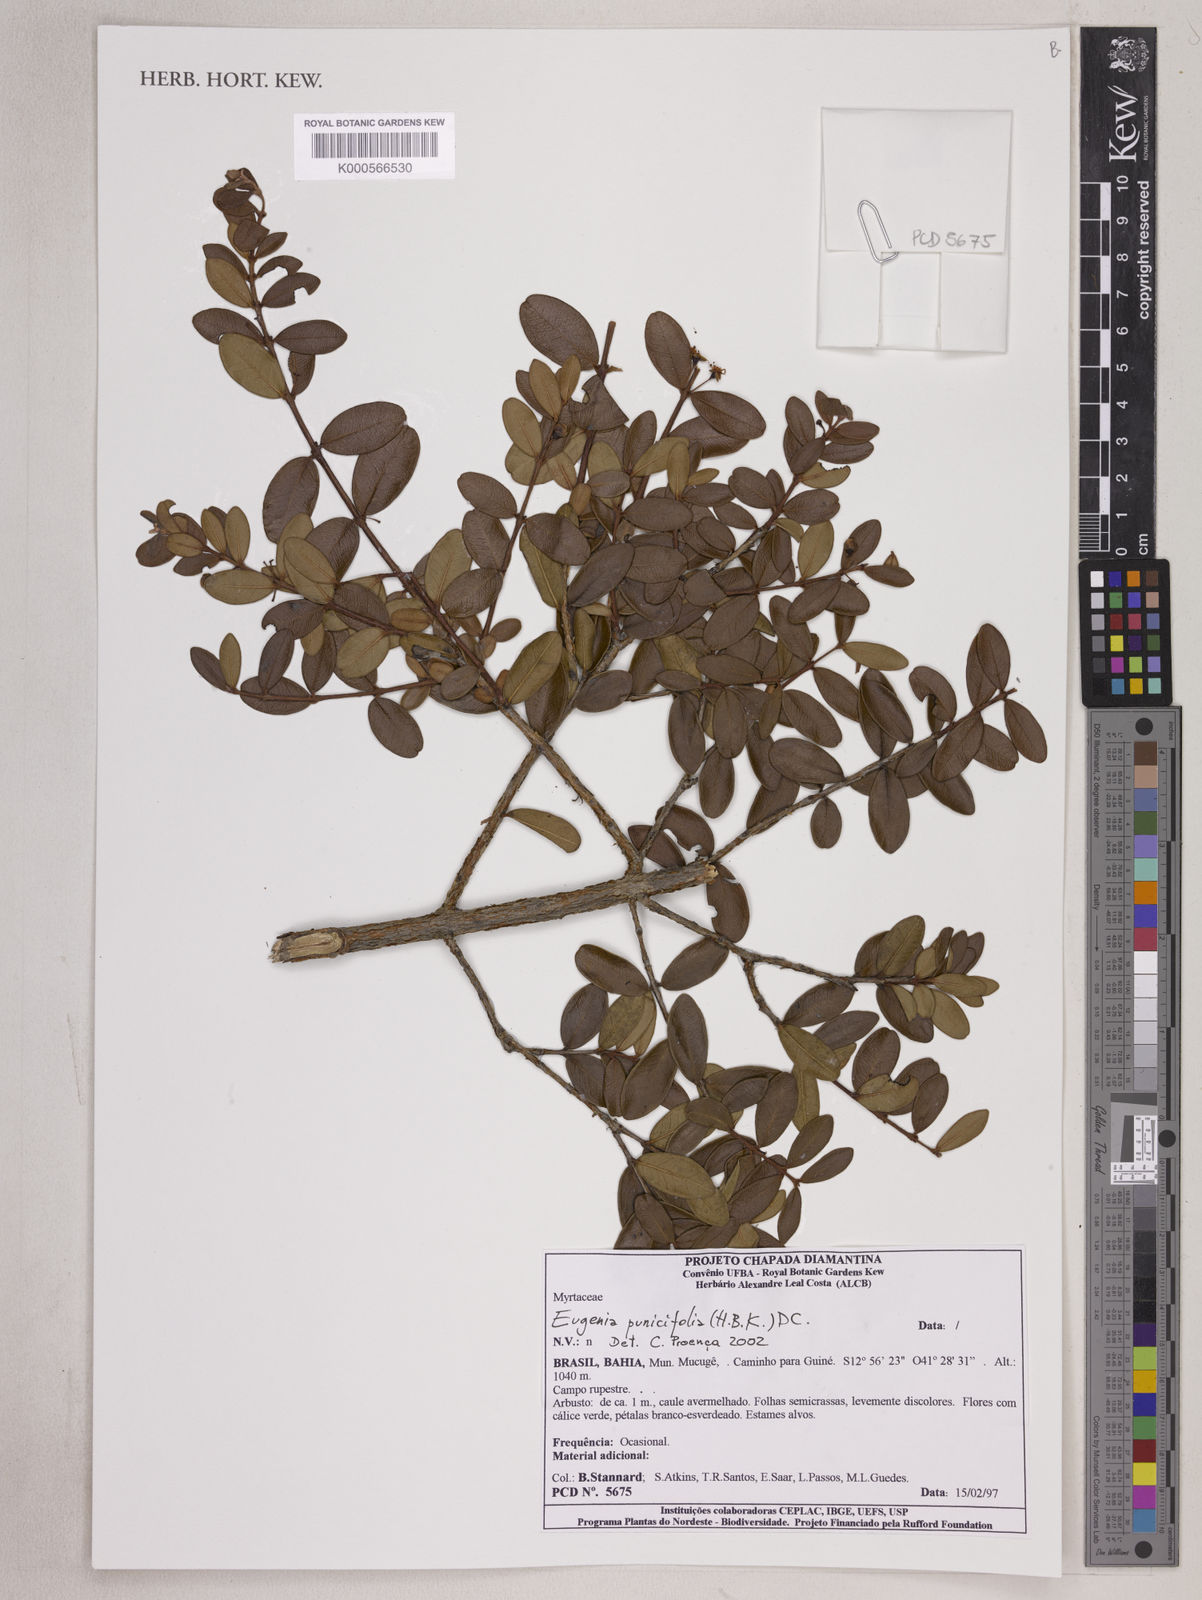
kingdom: Plantae
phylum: Tracheophyta
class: Magnoliopsida
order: Myrtales
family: Myrtaceae
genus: Eugenia
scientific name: Eugenia punicifolia
